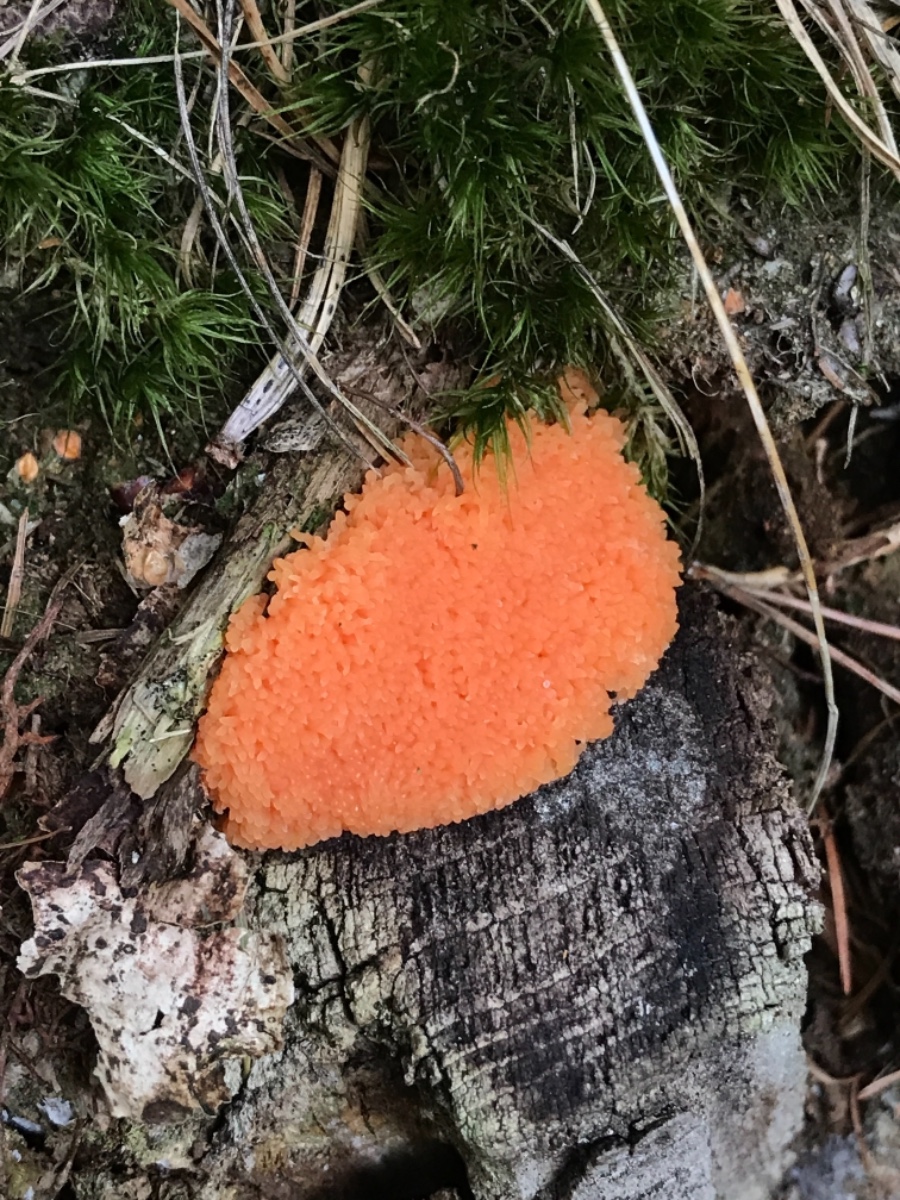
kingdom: Protozoa
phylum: Mycetozoa
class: Myxomycetes
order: Cribrariales
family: Tubiferaceae
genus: Tubifera
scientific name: Tubifera ferruginosa
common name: kanel-støvrør
